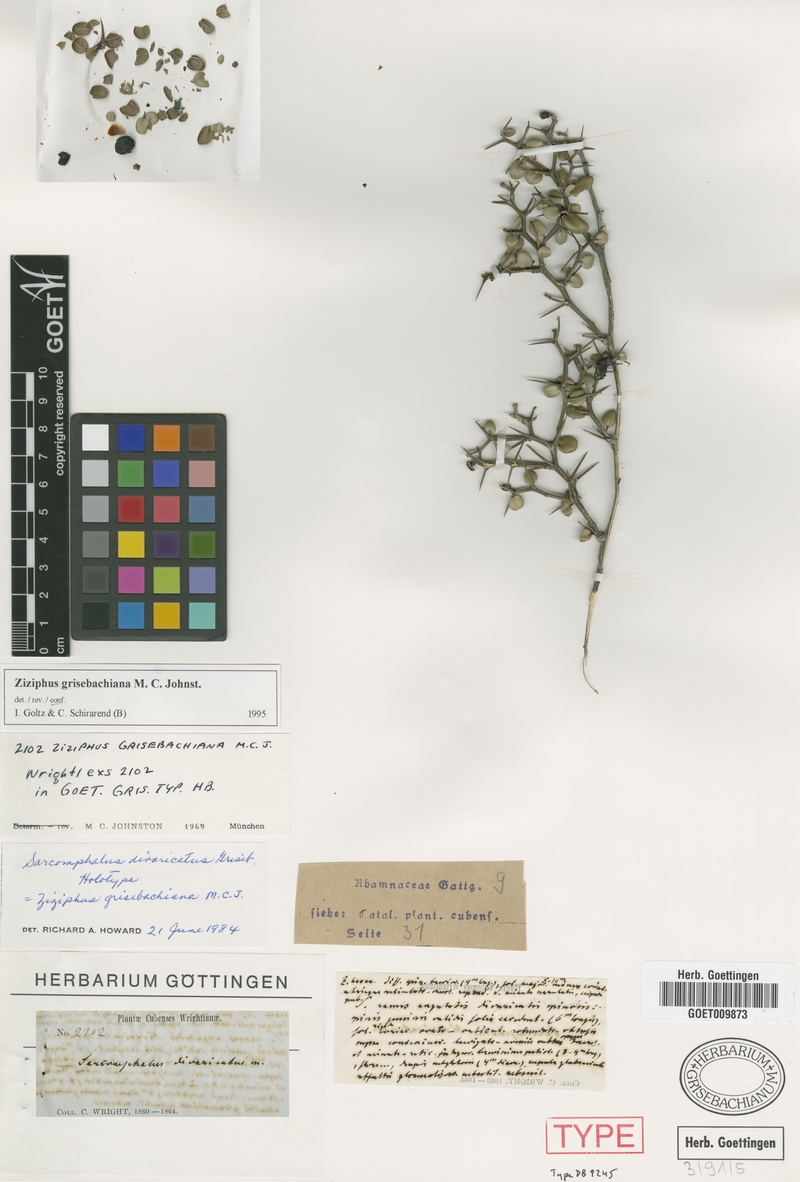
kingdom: Plantae
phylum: Tracheophyta
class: Magnoliopsida
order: Rosales
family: Rhamnaceae
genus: Sarcomphalus
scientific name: Sarcomphalus divaricatus
